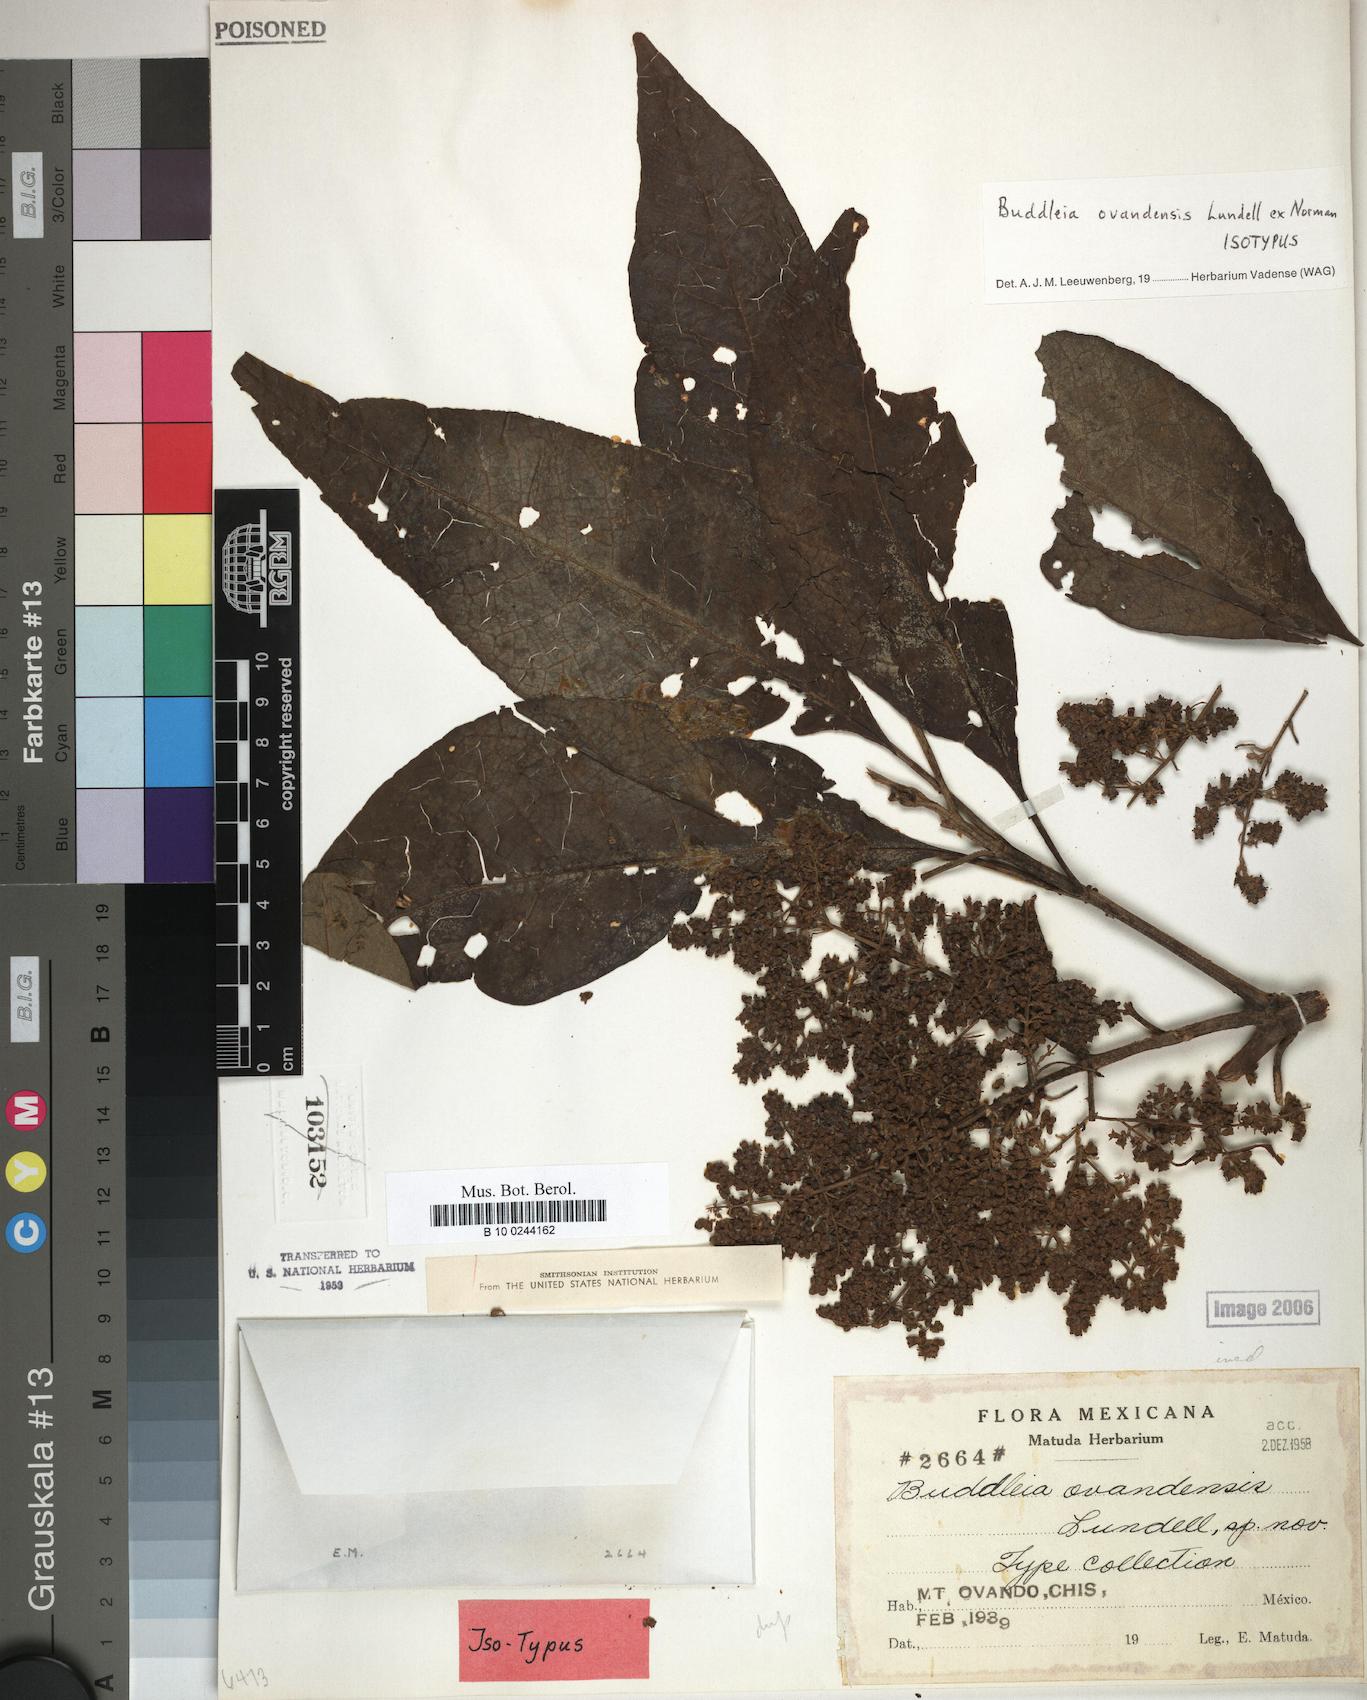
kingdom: Plantae
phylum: Tracheophyta
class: Magnoliopsida
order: Lamiales
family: Scrophulariaceae
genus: Buddleja
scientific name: Buddleja cordata
